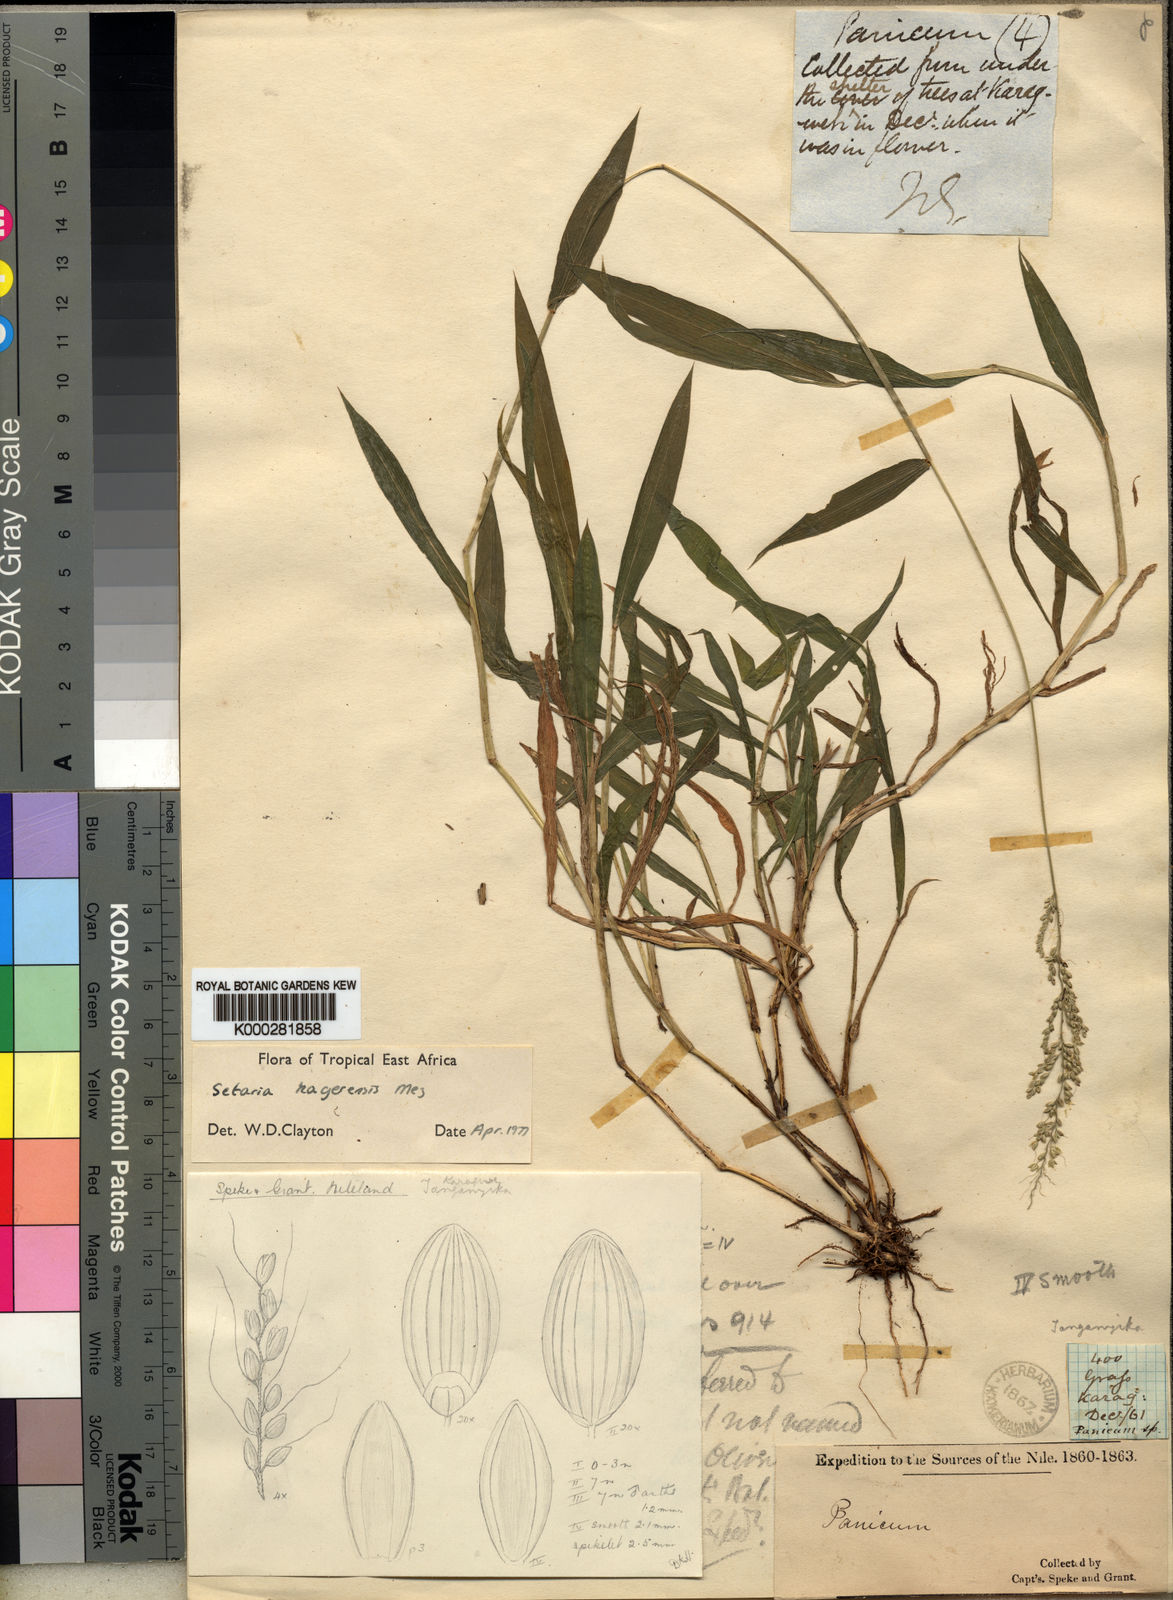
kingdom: Plantae
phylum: Tracheophyta
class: Liliopsida
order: Poales
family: Poaceae
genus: Setaria
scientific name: Setaria kagerensis
